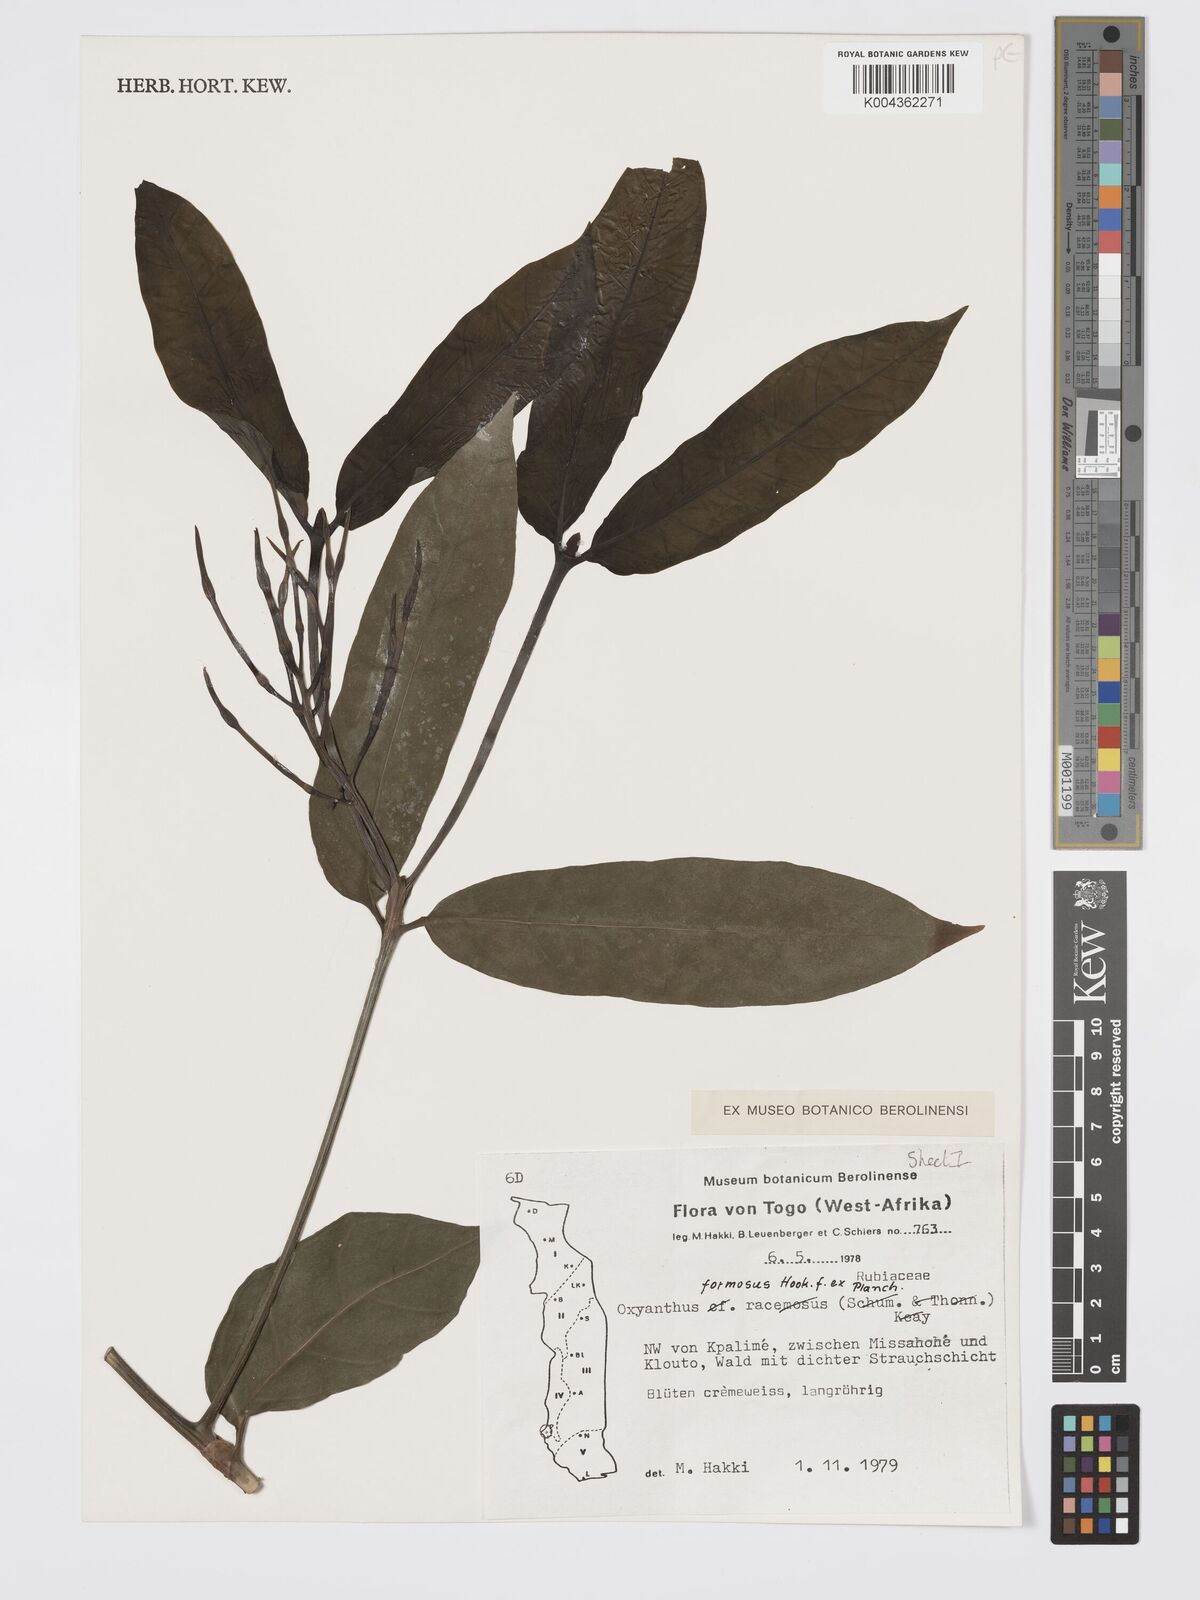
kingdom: Plantae
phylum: Tracheophyta
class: Magnoliopsida
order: Gentianales
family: Rubiaceae
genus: Oxyanthus
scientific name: Oxyanthus formosus
